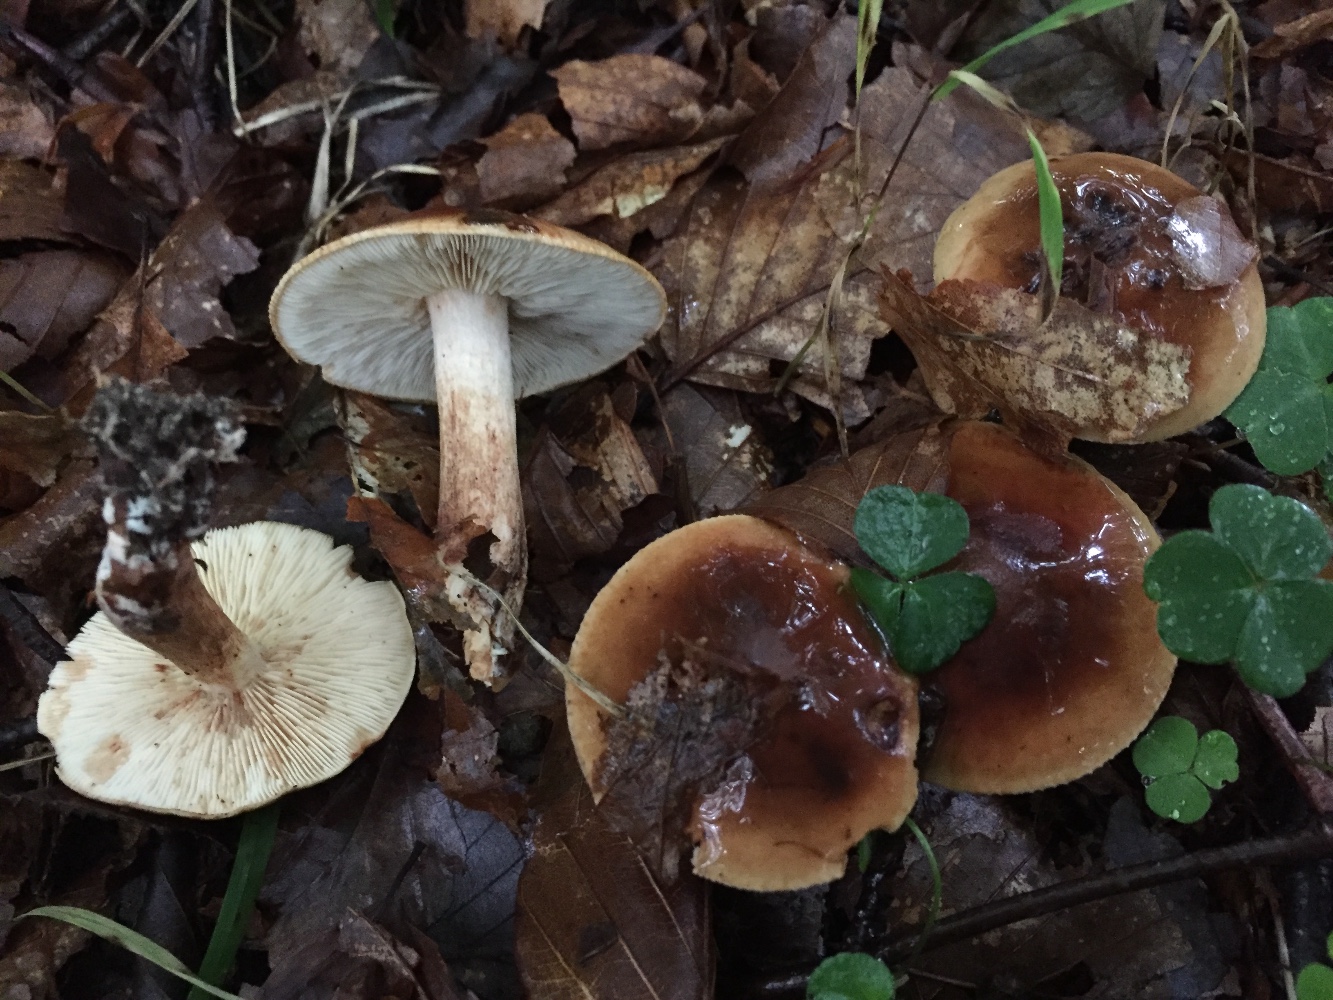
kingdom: Fungi
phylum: Basidiomycota
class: Agaricomycetes
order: Agaricales
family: Tricholomataceae
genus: Tricholoma
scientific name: Tricholoma ustale
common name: sveden ridderhat
